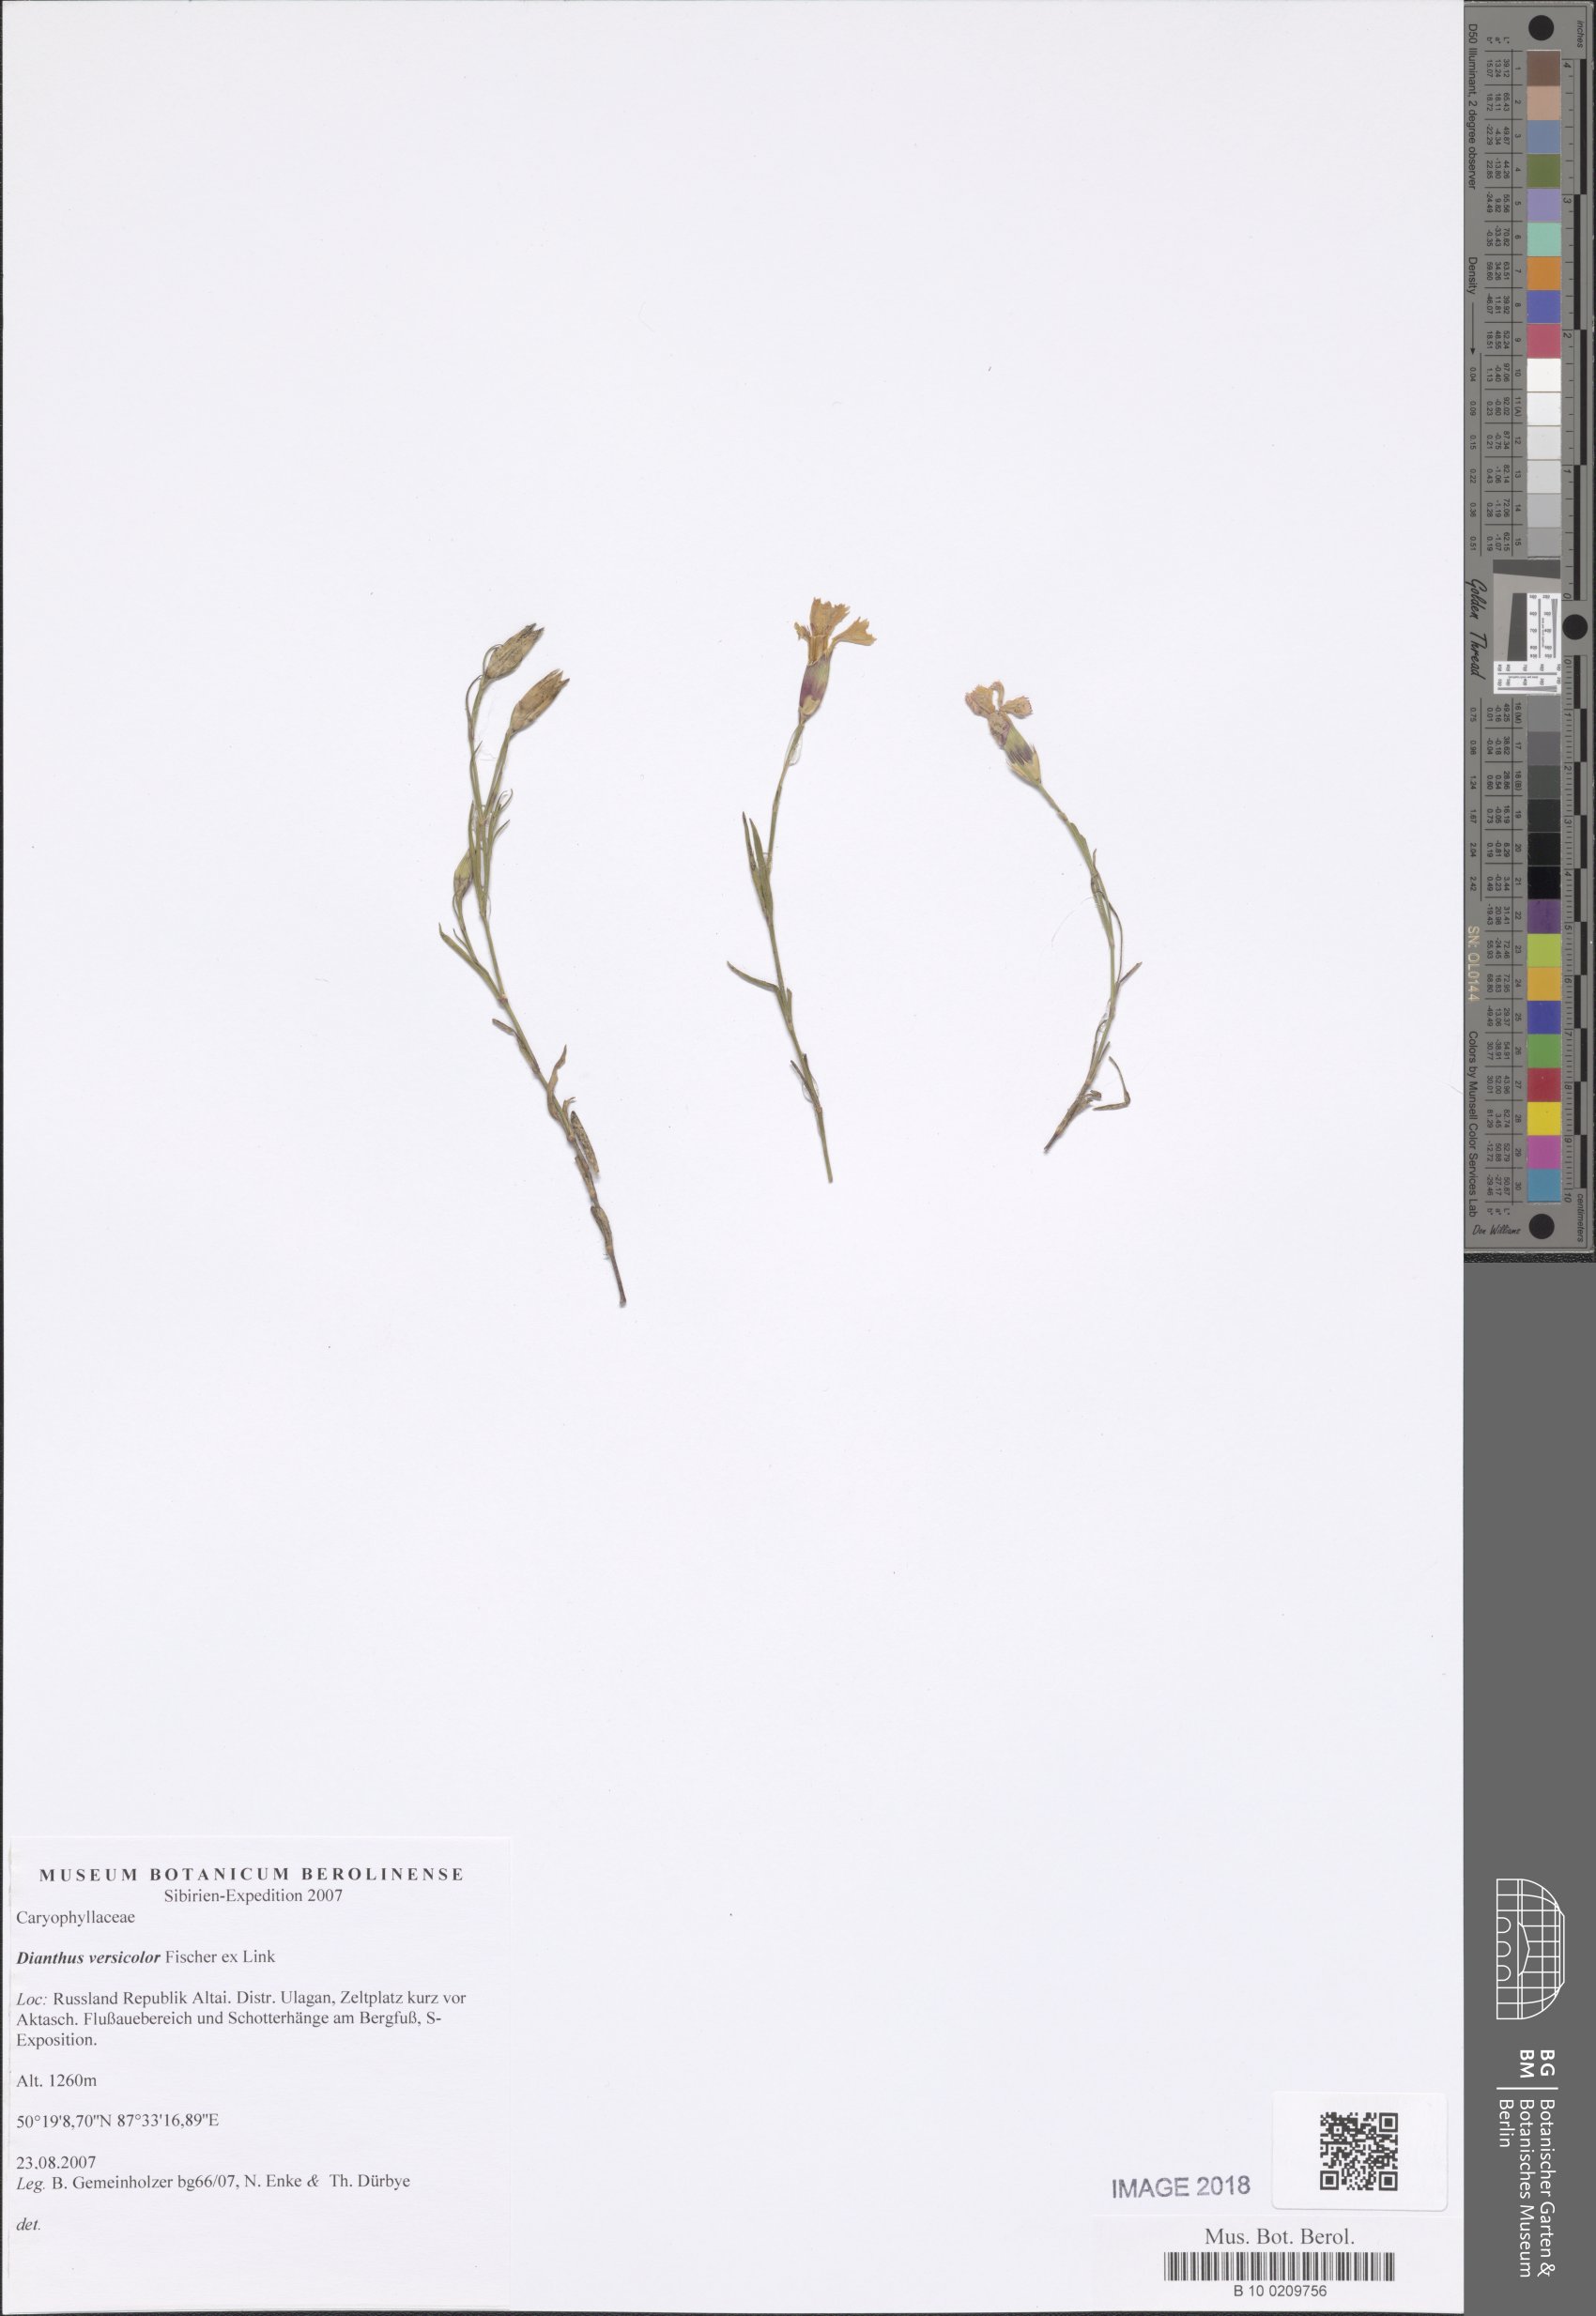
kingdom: Plantae
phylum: Tracheophyta
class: Magnoliopsida
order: Caryophyllales
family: Caryophyllaceae
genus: Dianthus
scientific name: Dianthus chinensis
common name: Rainbow pink
